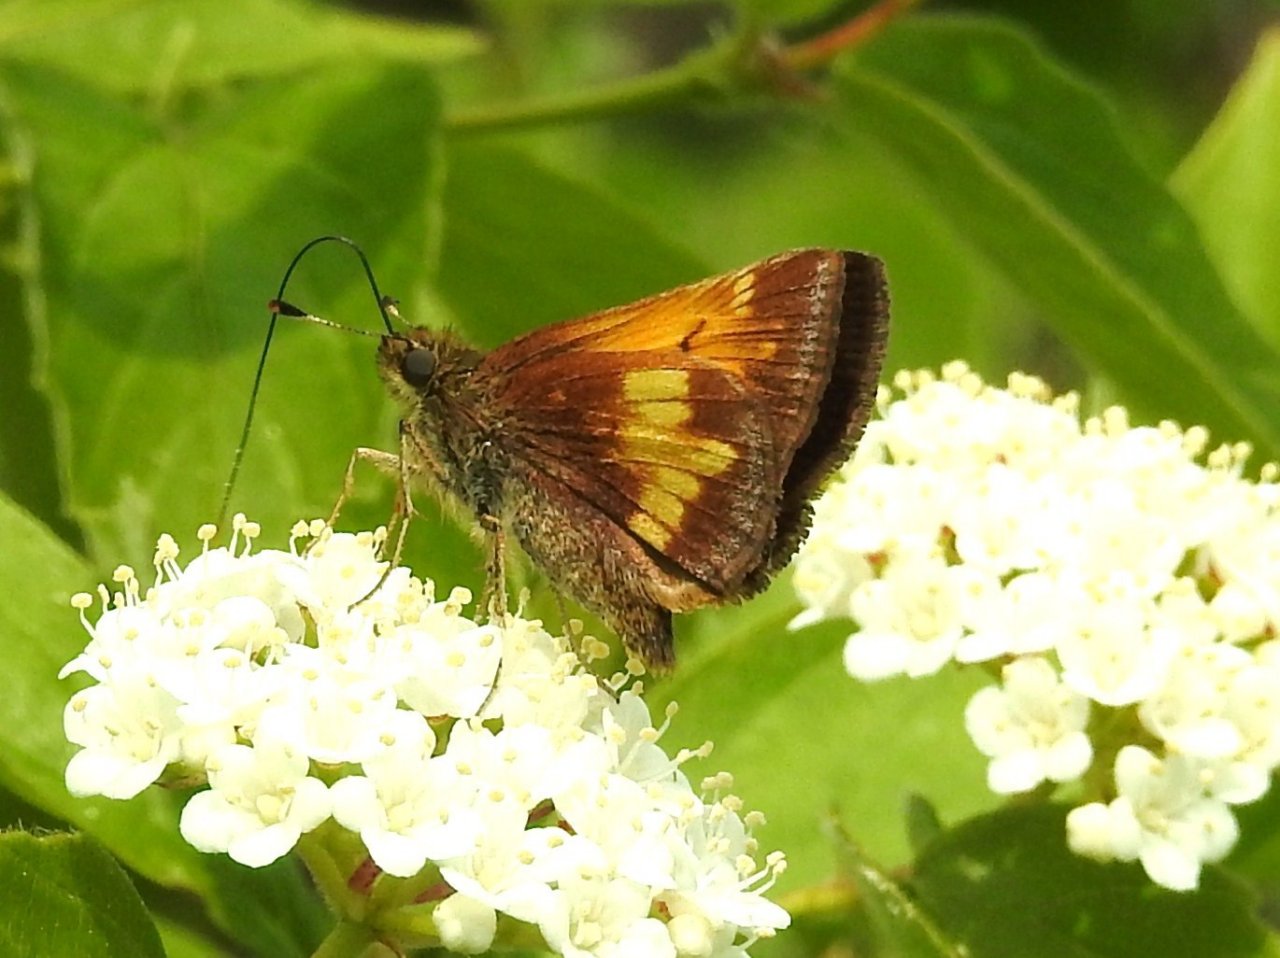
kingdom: Animalia
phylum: Arthropoda
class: Insecta
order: Lepidoptera
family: Hesperiidae
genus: Lon
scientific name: Lon hobomok
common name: Hobomok Skipper
